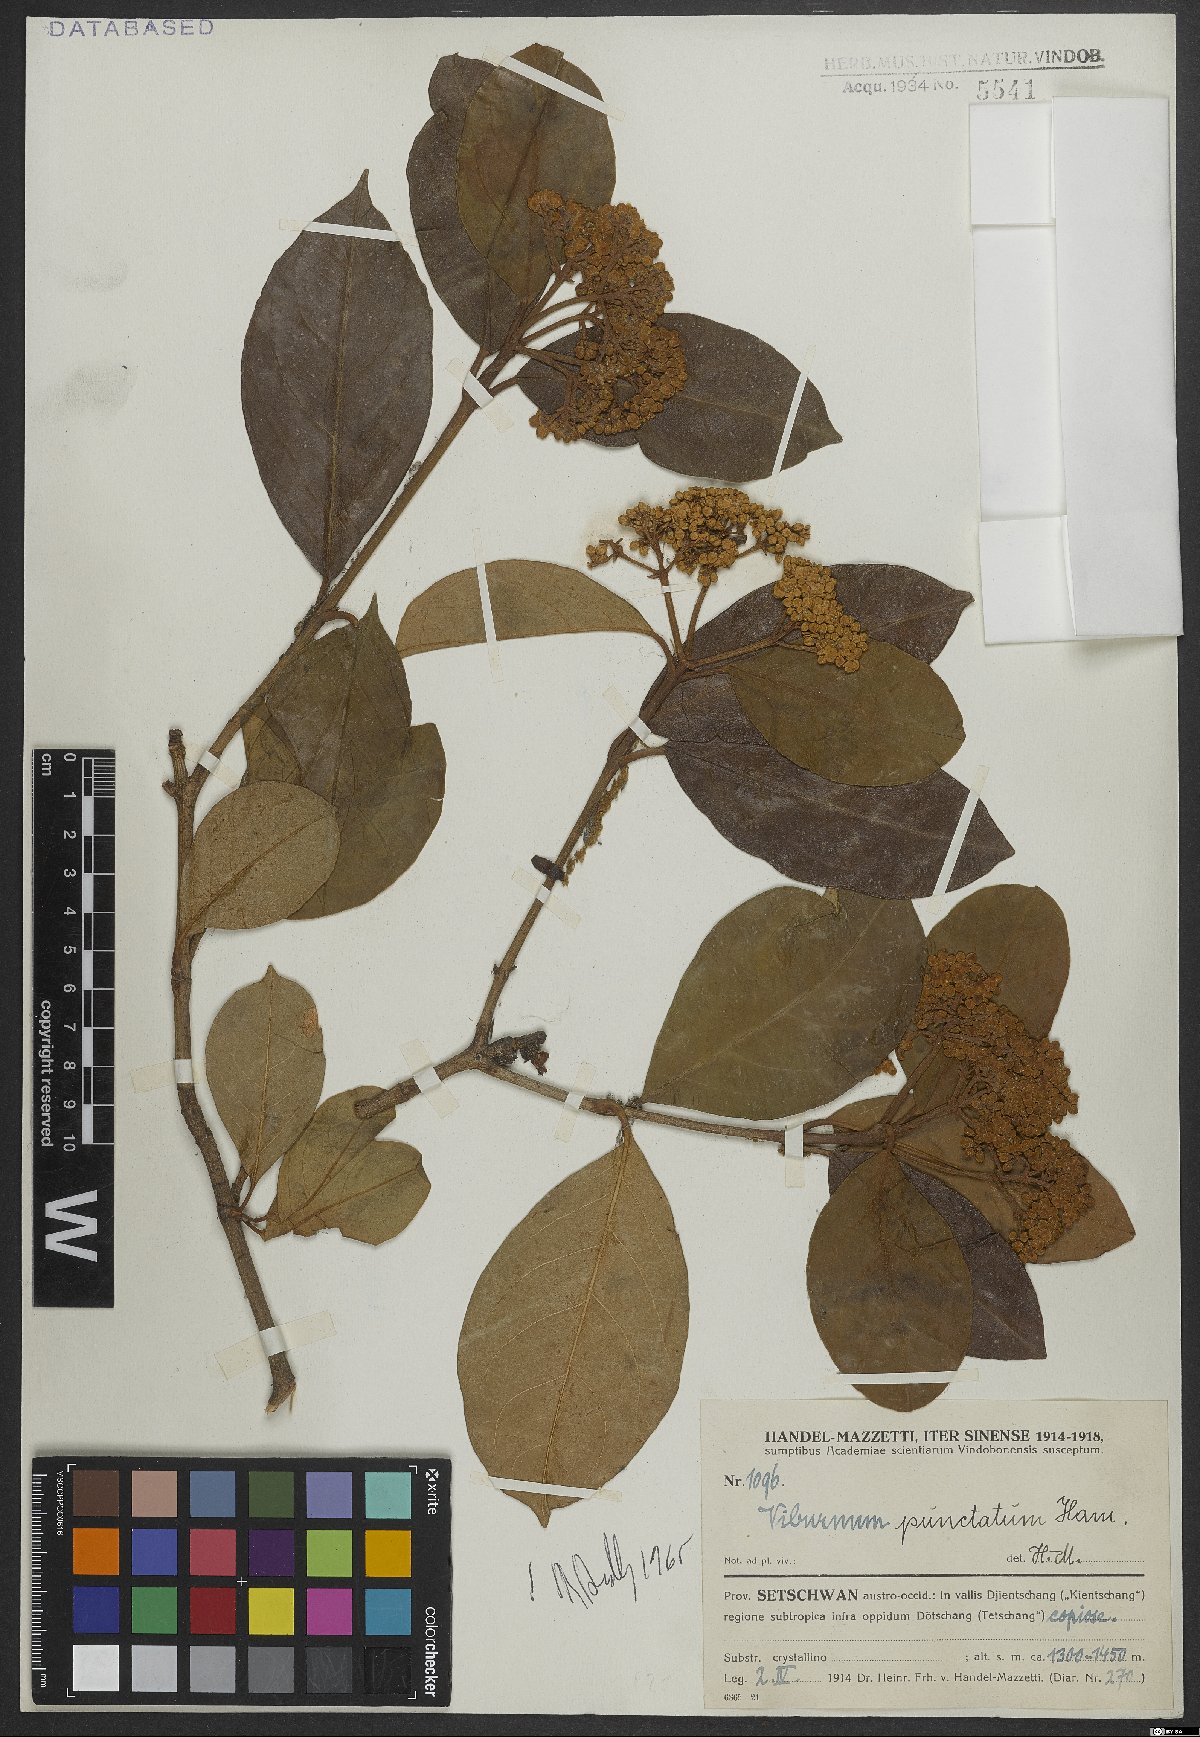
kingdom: Plantae
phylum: Tracheophyta
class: Magnoliopsida
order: Dipsacales
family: Viburnaceae
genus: Viburnum
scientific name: Viburnum punctatum
